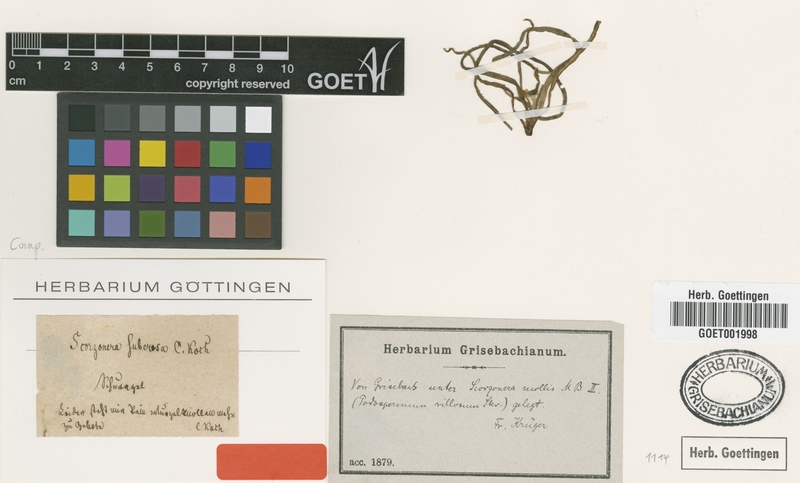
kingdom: Plantae
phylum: Tracheophyta
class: Magnoliopsida
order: Asterales
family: Asteraceae
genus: Pseudopodospermum
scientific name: Pseudopodospermum suberosum
